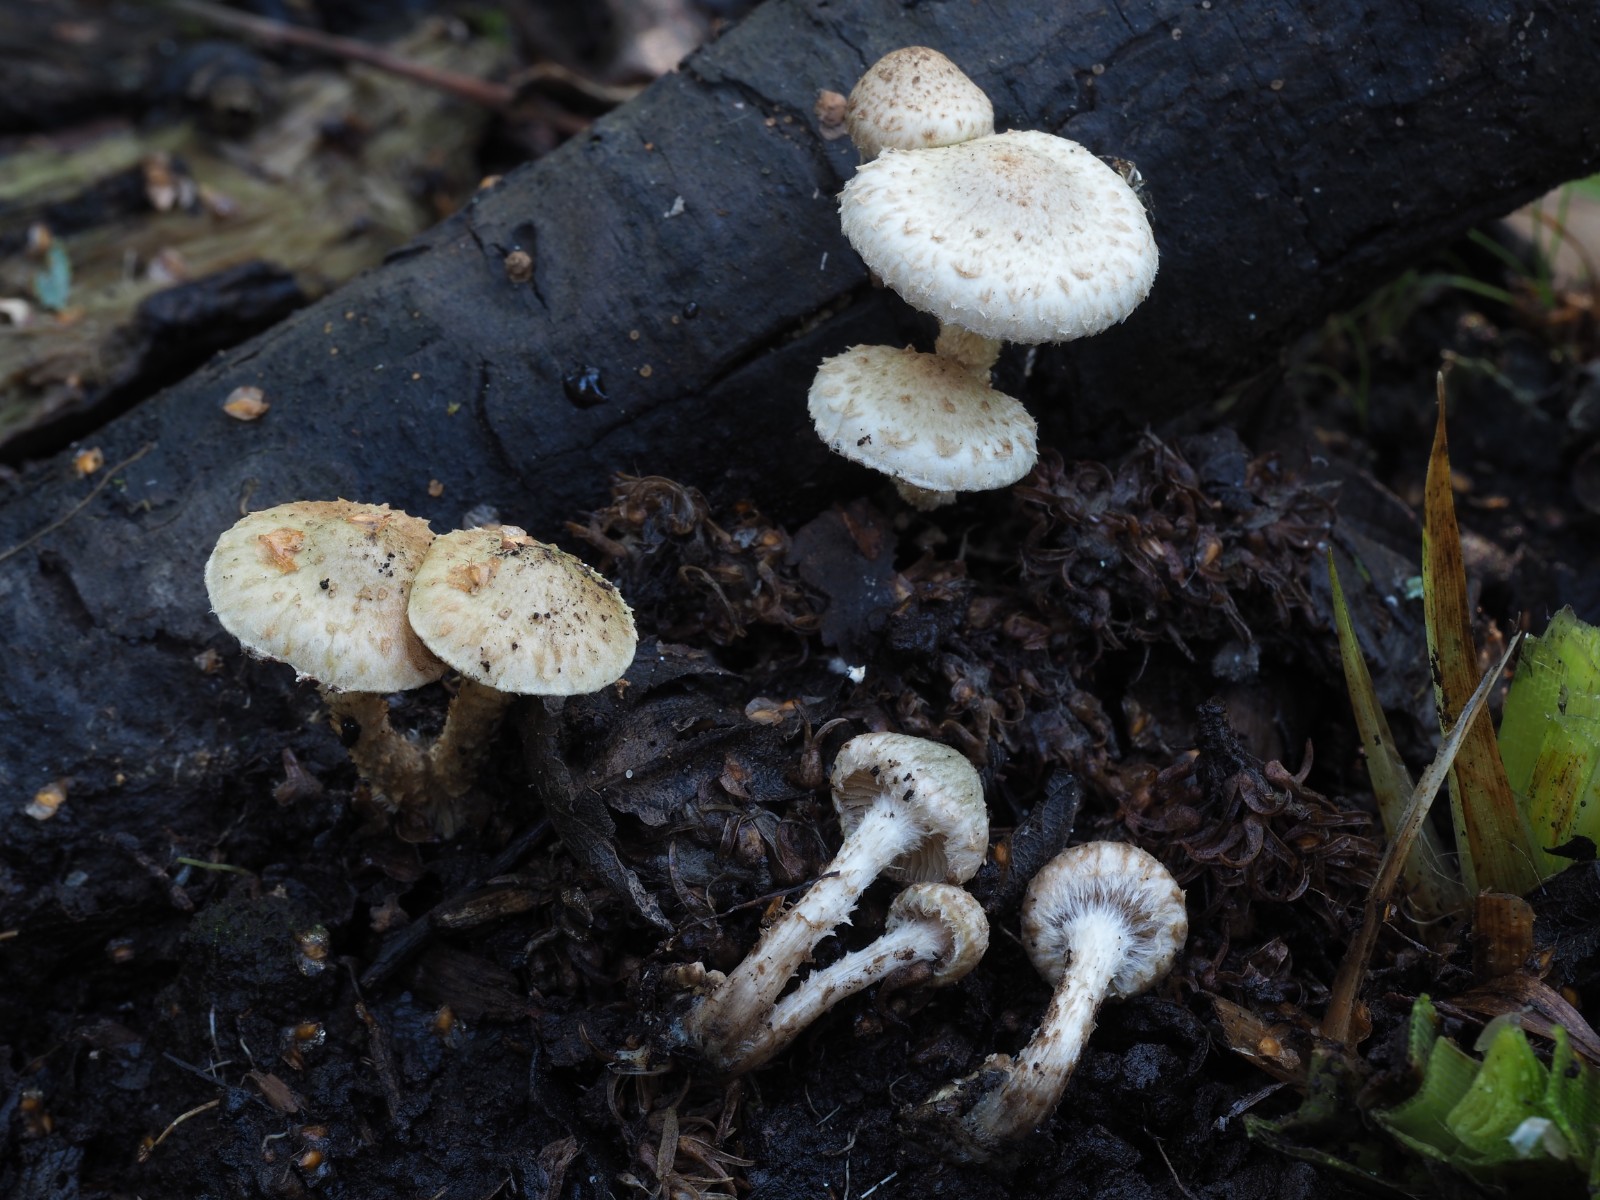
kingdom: Fungi
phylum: Basidiomycota
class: Agaricomycetes
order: Agaricales
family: Strophariaceae
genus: Pholiota
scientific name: Pholiota gummosa
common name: grøngul skælhat
